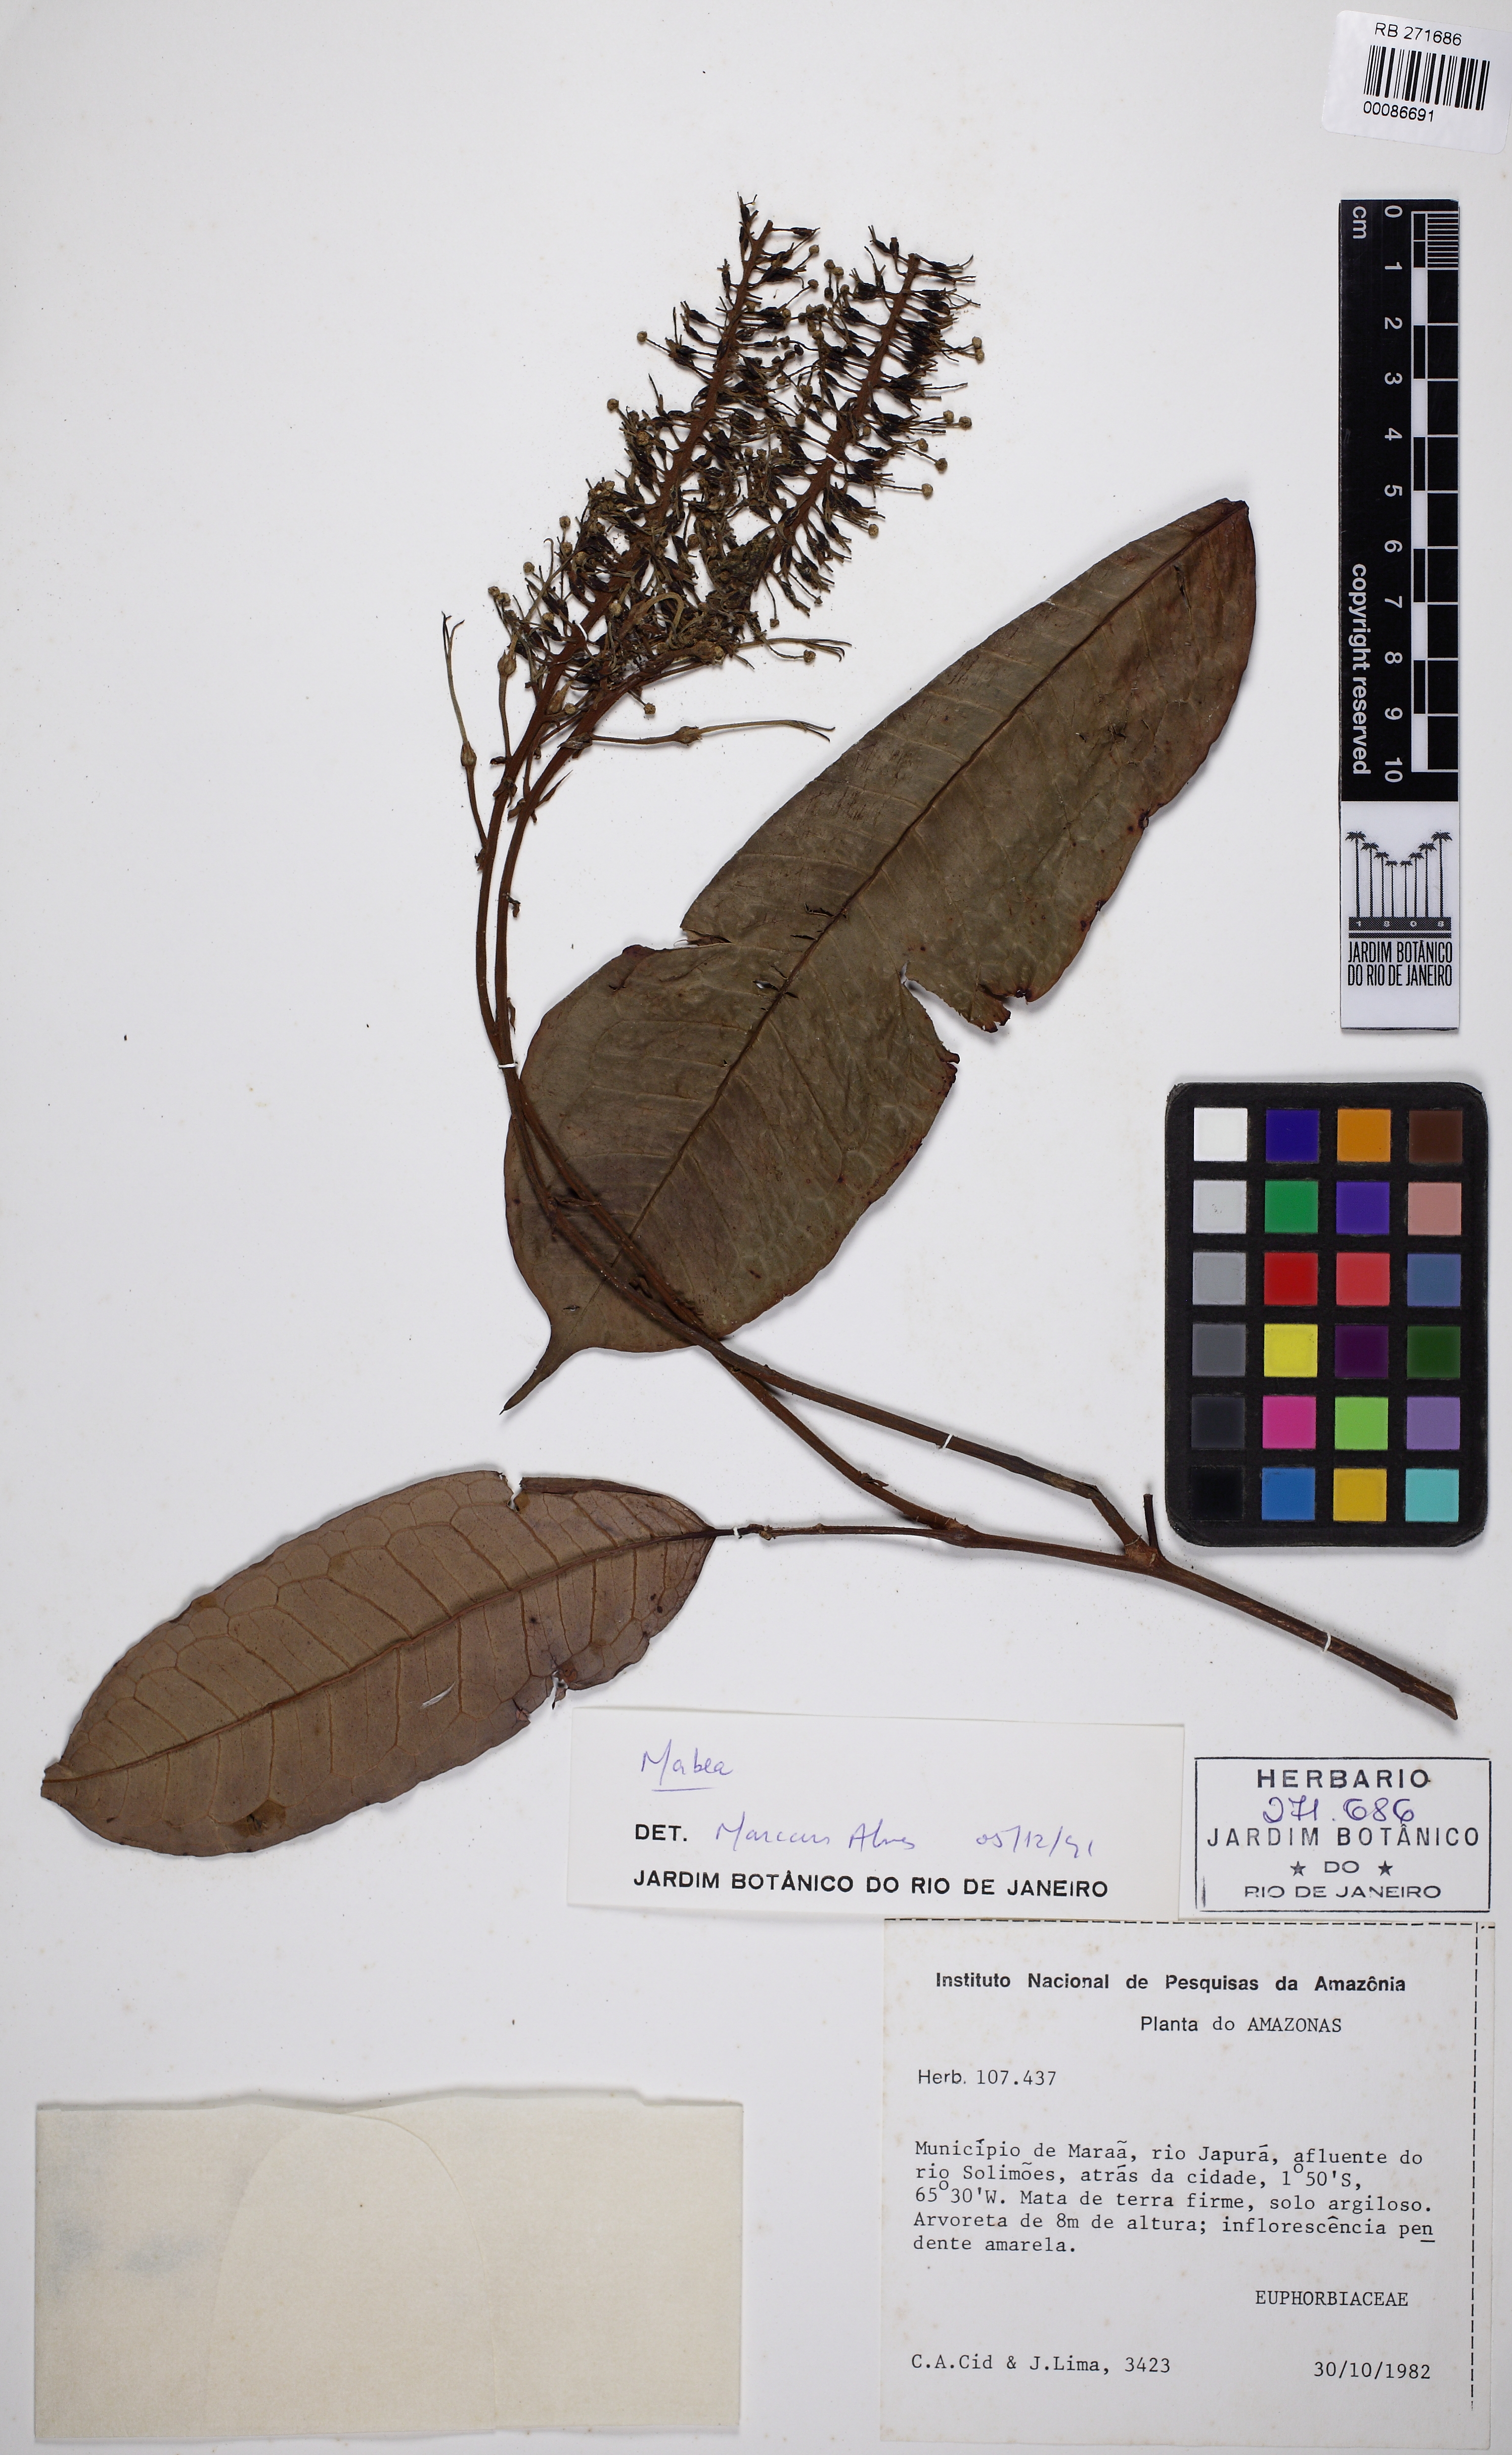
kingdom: Plantae
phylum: Tracheophyta
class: Magnoliopsida
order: Malpighiales
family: Euphorbiaceae
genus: Mabea
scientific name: Mabea
